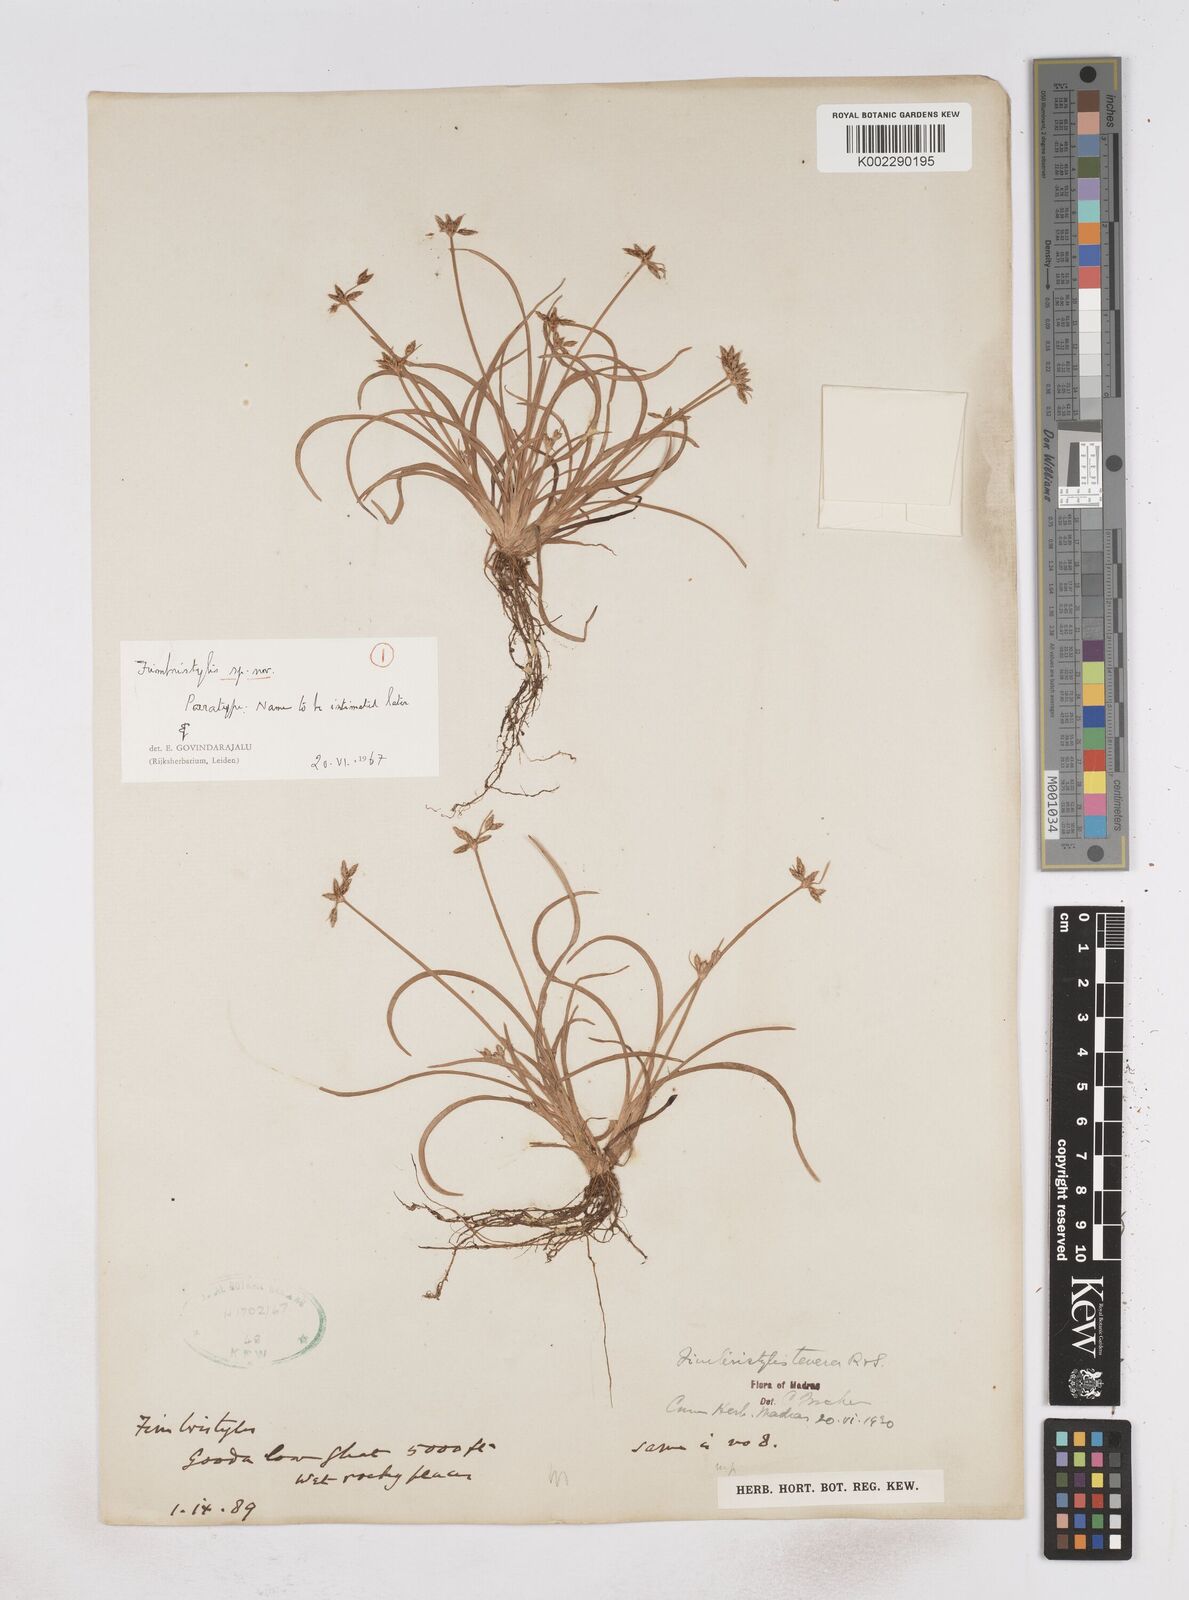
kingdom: Plantae
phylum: Tracheophyta
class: Liliopsida
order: Poales
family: Cyperaceae
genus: Fimbristylis
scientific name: Fimbristylis
